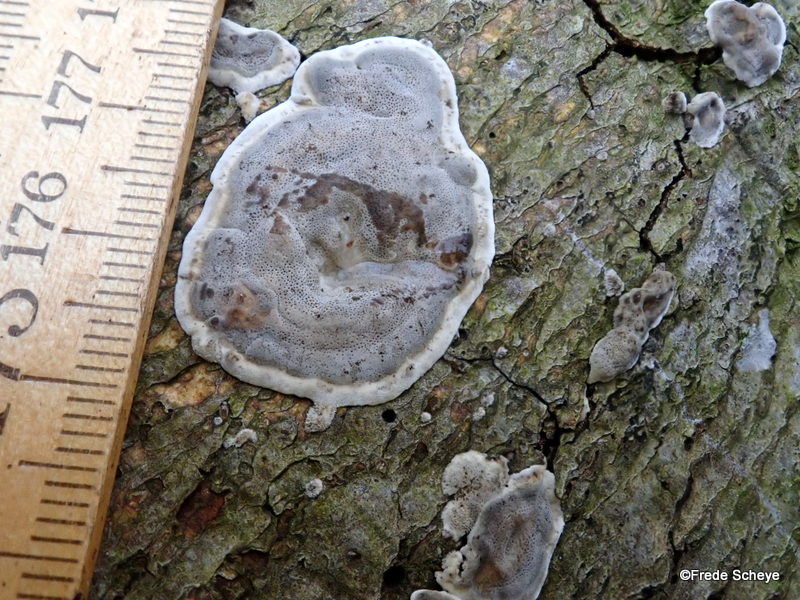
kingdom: Fungi
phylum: Basidiomycota
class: Agaricomycetes
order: Polyporales
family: Phanerochaetaceae
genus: Bjerkandera
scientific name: Bjerkandera adusta
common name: sveden sodporesvamp
